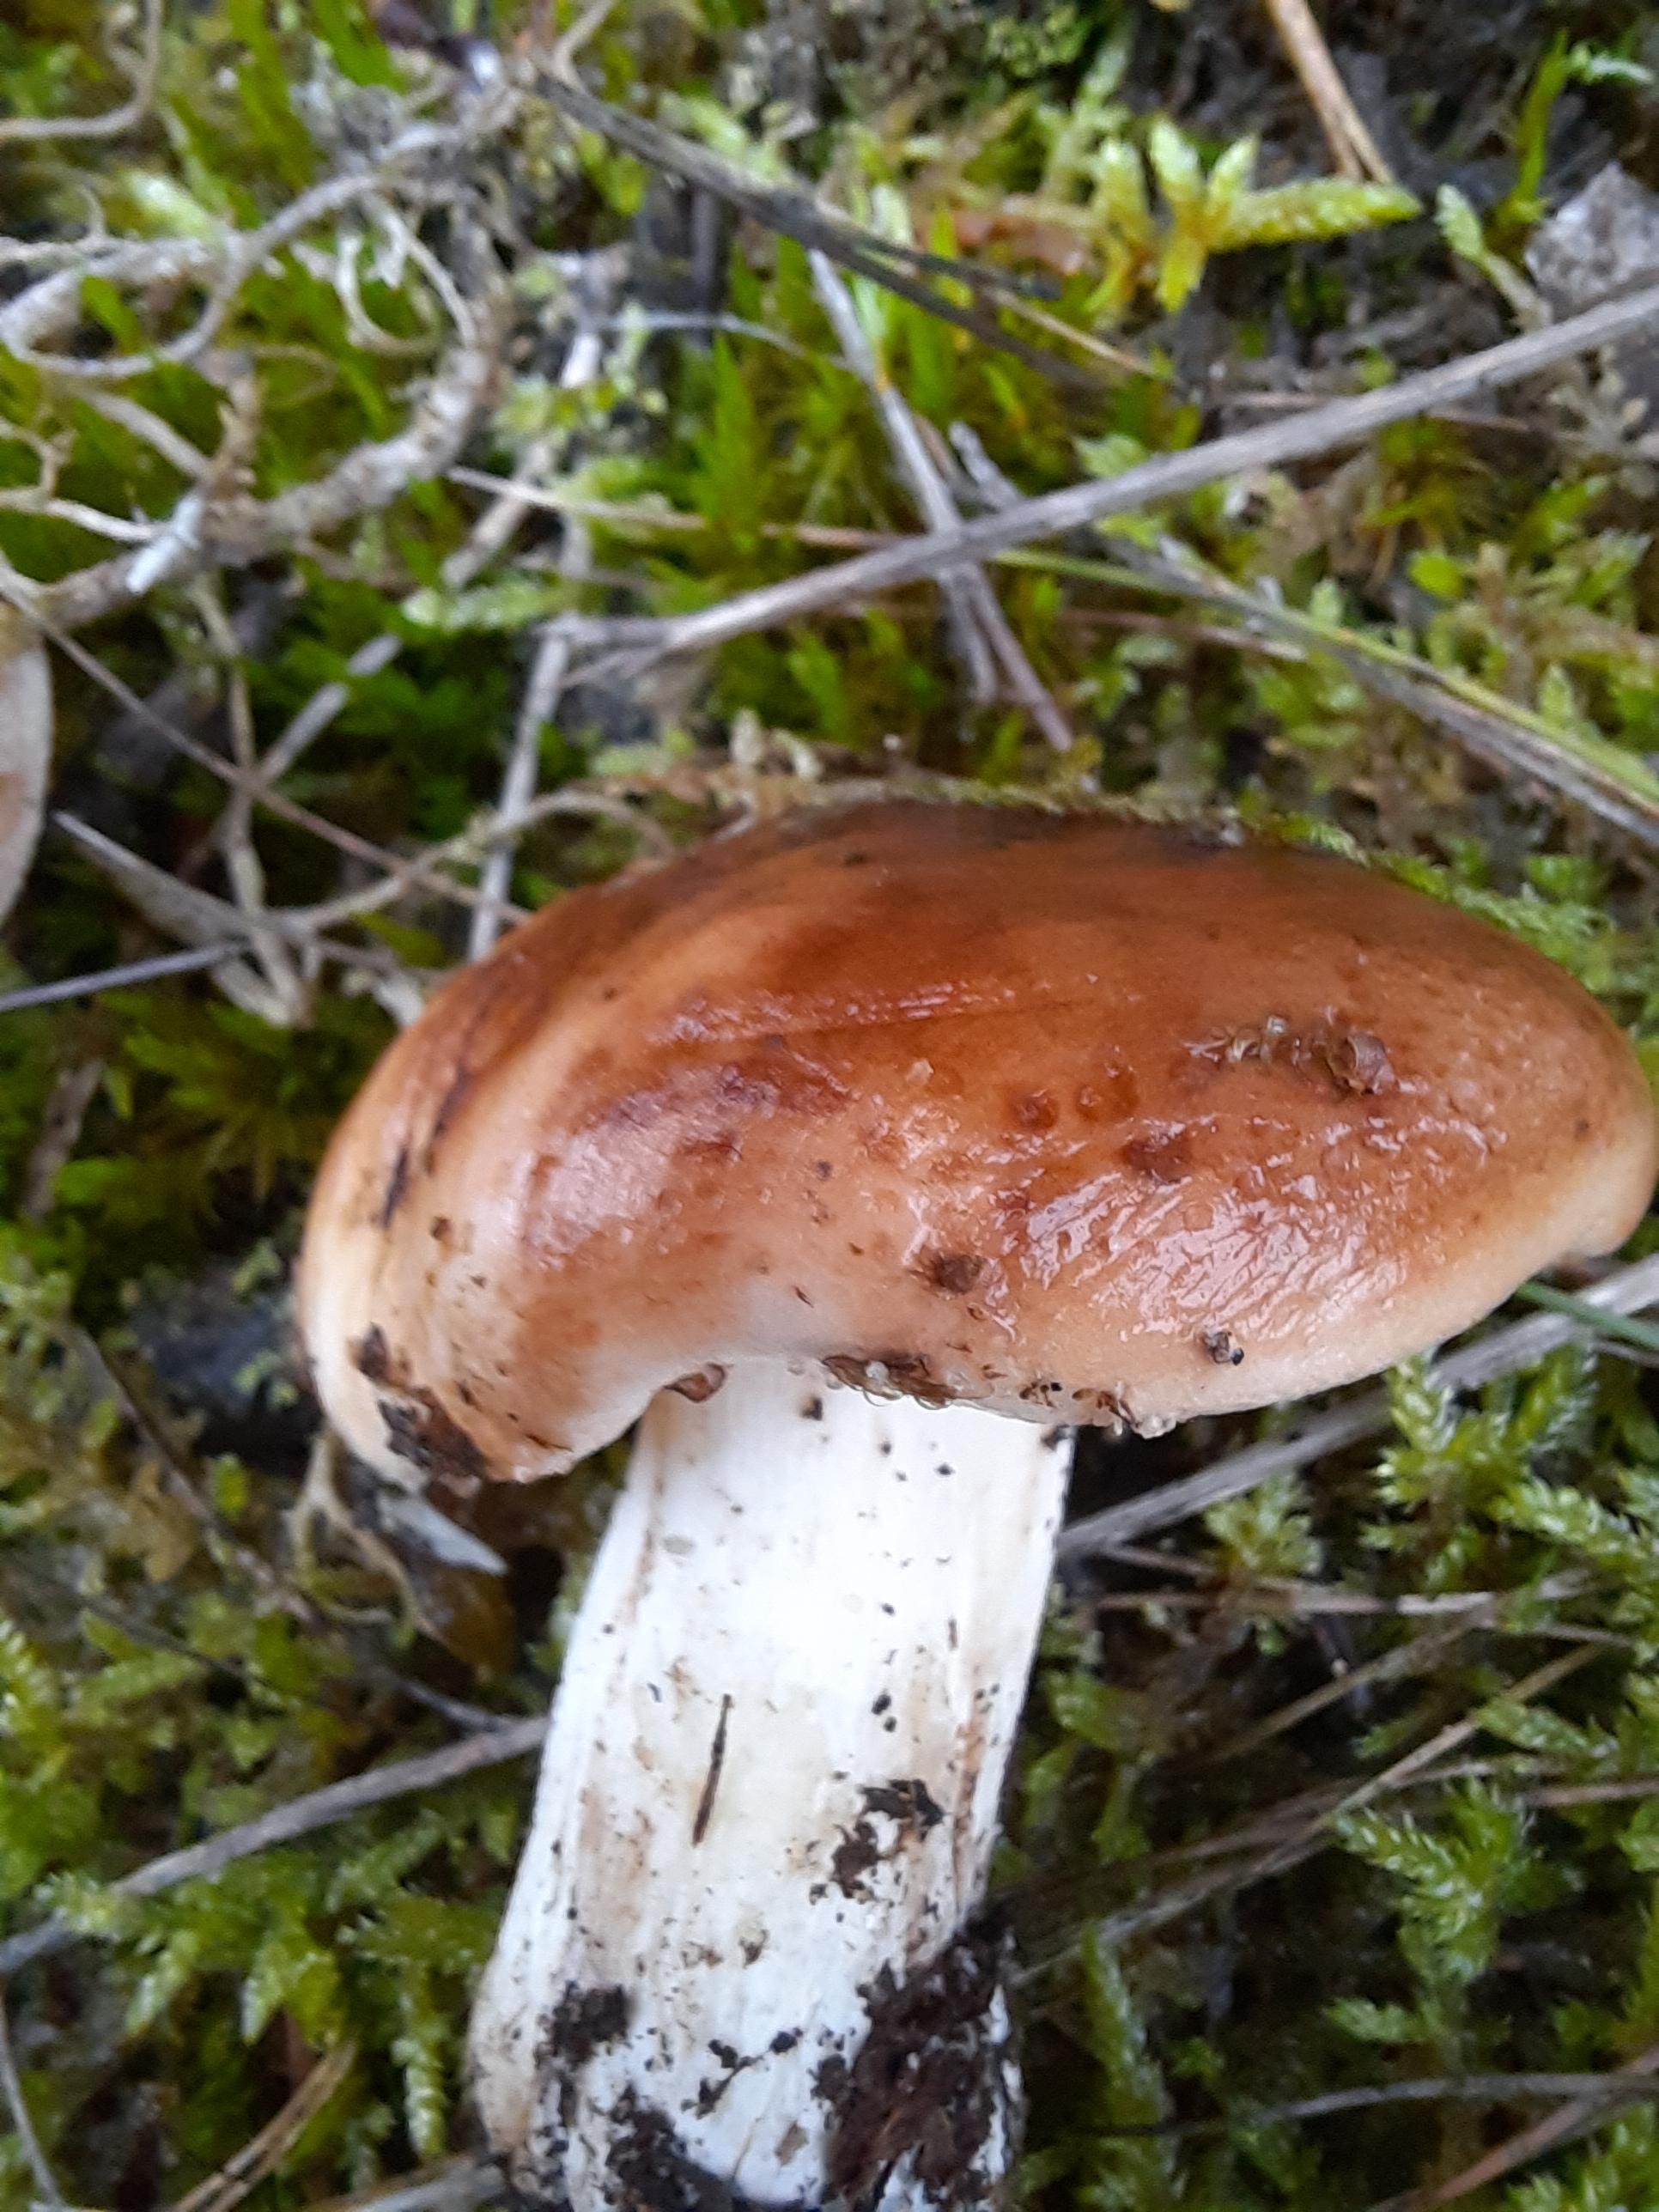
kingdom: Fungi
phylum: Basidiomycota
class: Agaricomycetes
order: Agaricales
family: Tricholomataceae
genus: Tricholoma
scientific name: Tricholoma pessundatum
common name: dråbeplettet ridderhat
